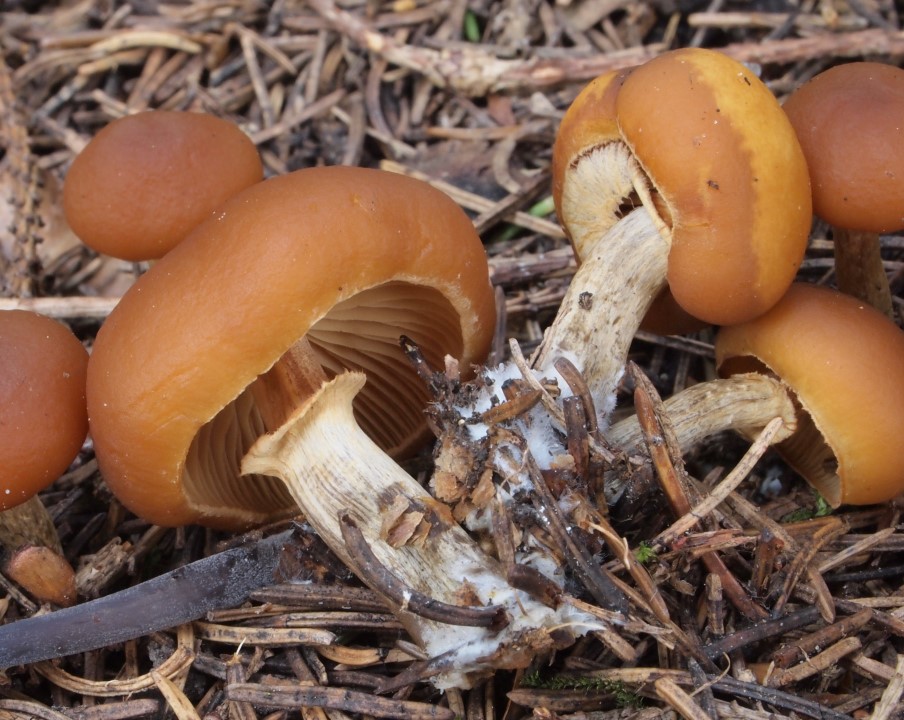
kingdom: Fungi
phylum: Basidiomycota
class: Agaricomycetes
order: Agaricales
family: Hymenogastraceae
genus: Galerina
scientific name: Galerina marginata
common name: randbæltet hjelmhat
